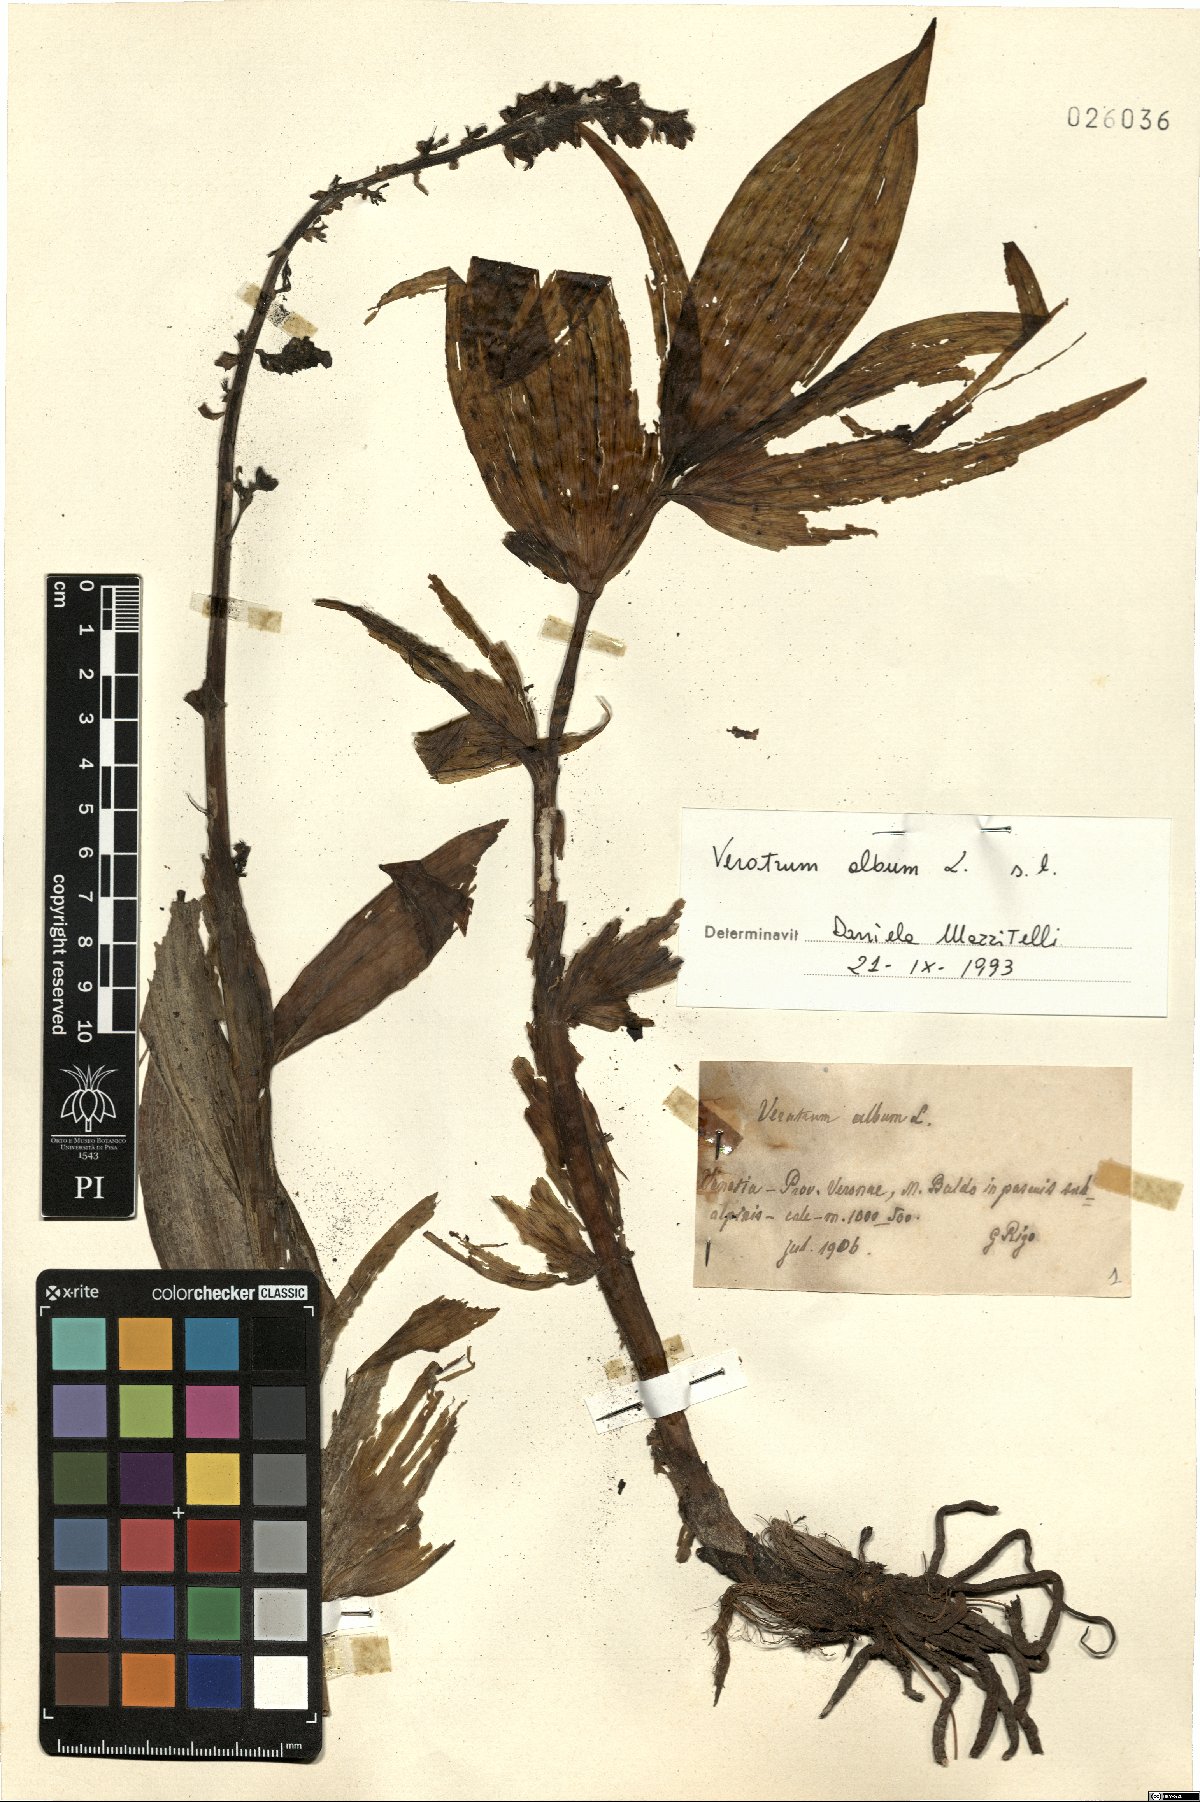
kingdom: Plantae
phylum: Tracheophyta
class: Liliopsida
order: Liliales
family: Melanthiaceae
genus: Veratrum
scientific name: Veratrum album
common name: White veratrum
